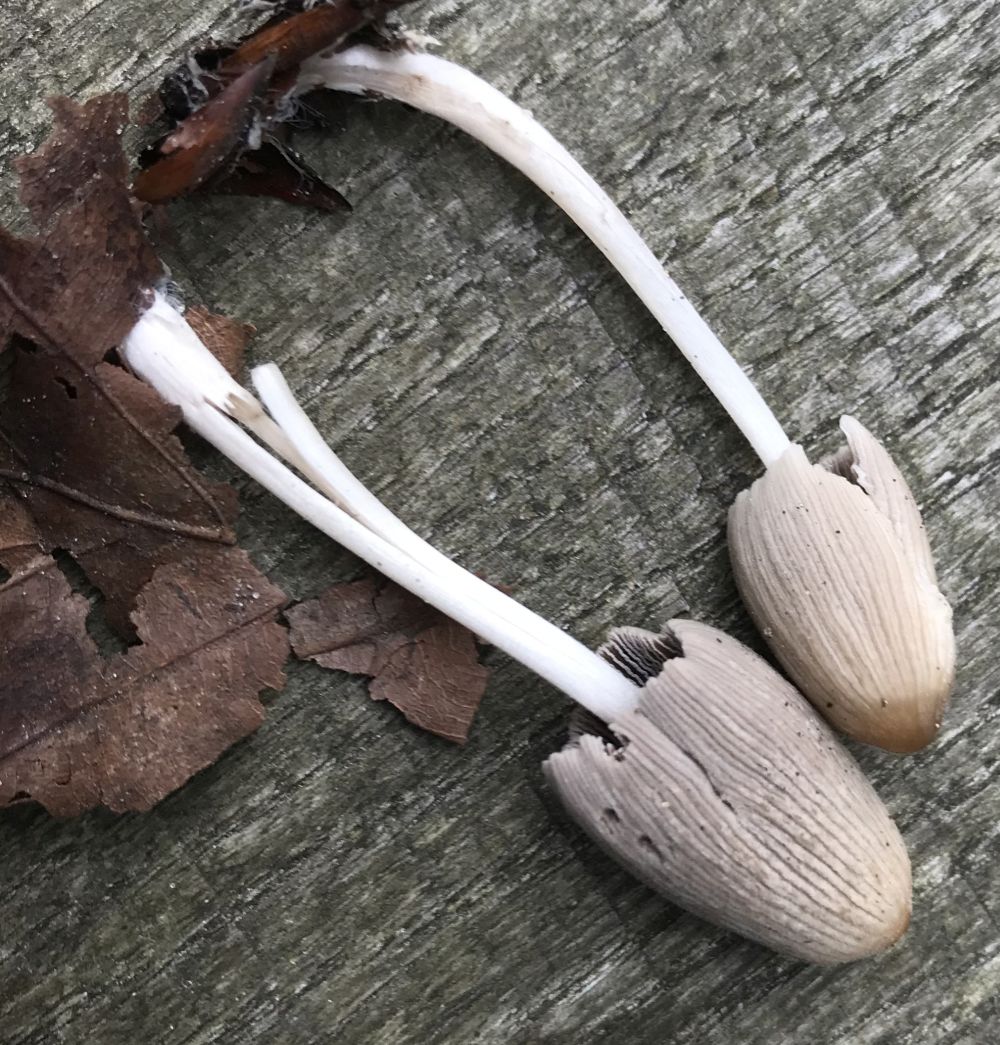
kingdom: Fungi
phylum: Basidiomycota
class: Agaricomycetes
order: Agaricales
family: Psathyrellaceae
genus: Coprinellus
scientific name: Coprinellus
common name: blækhat
